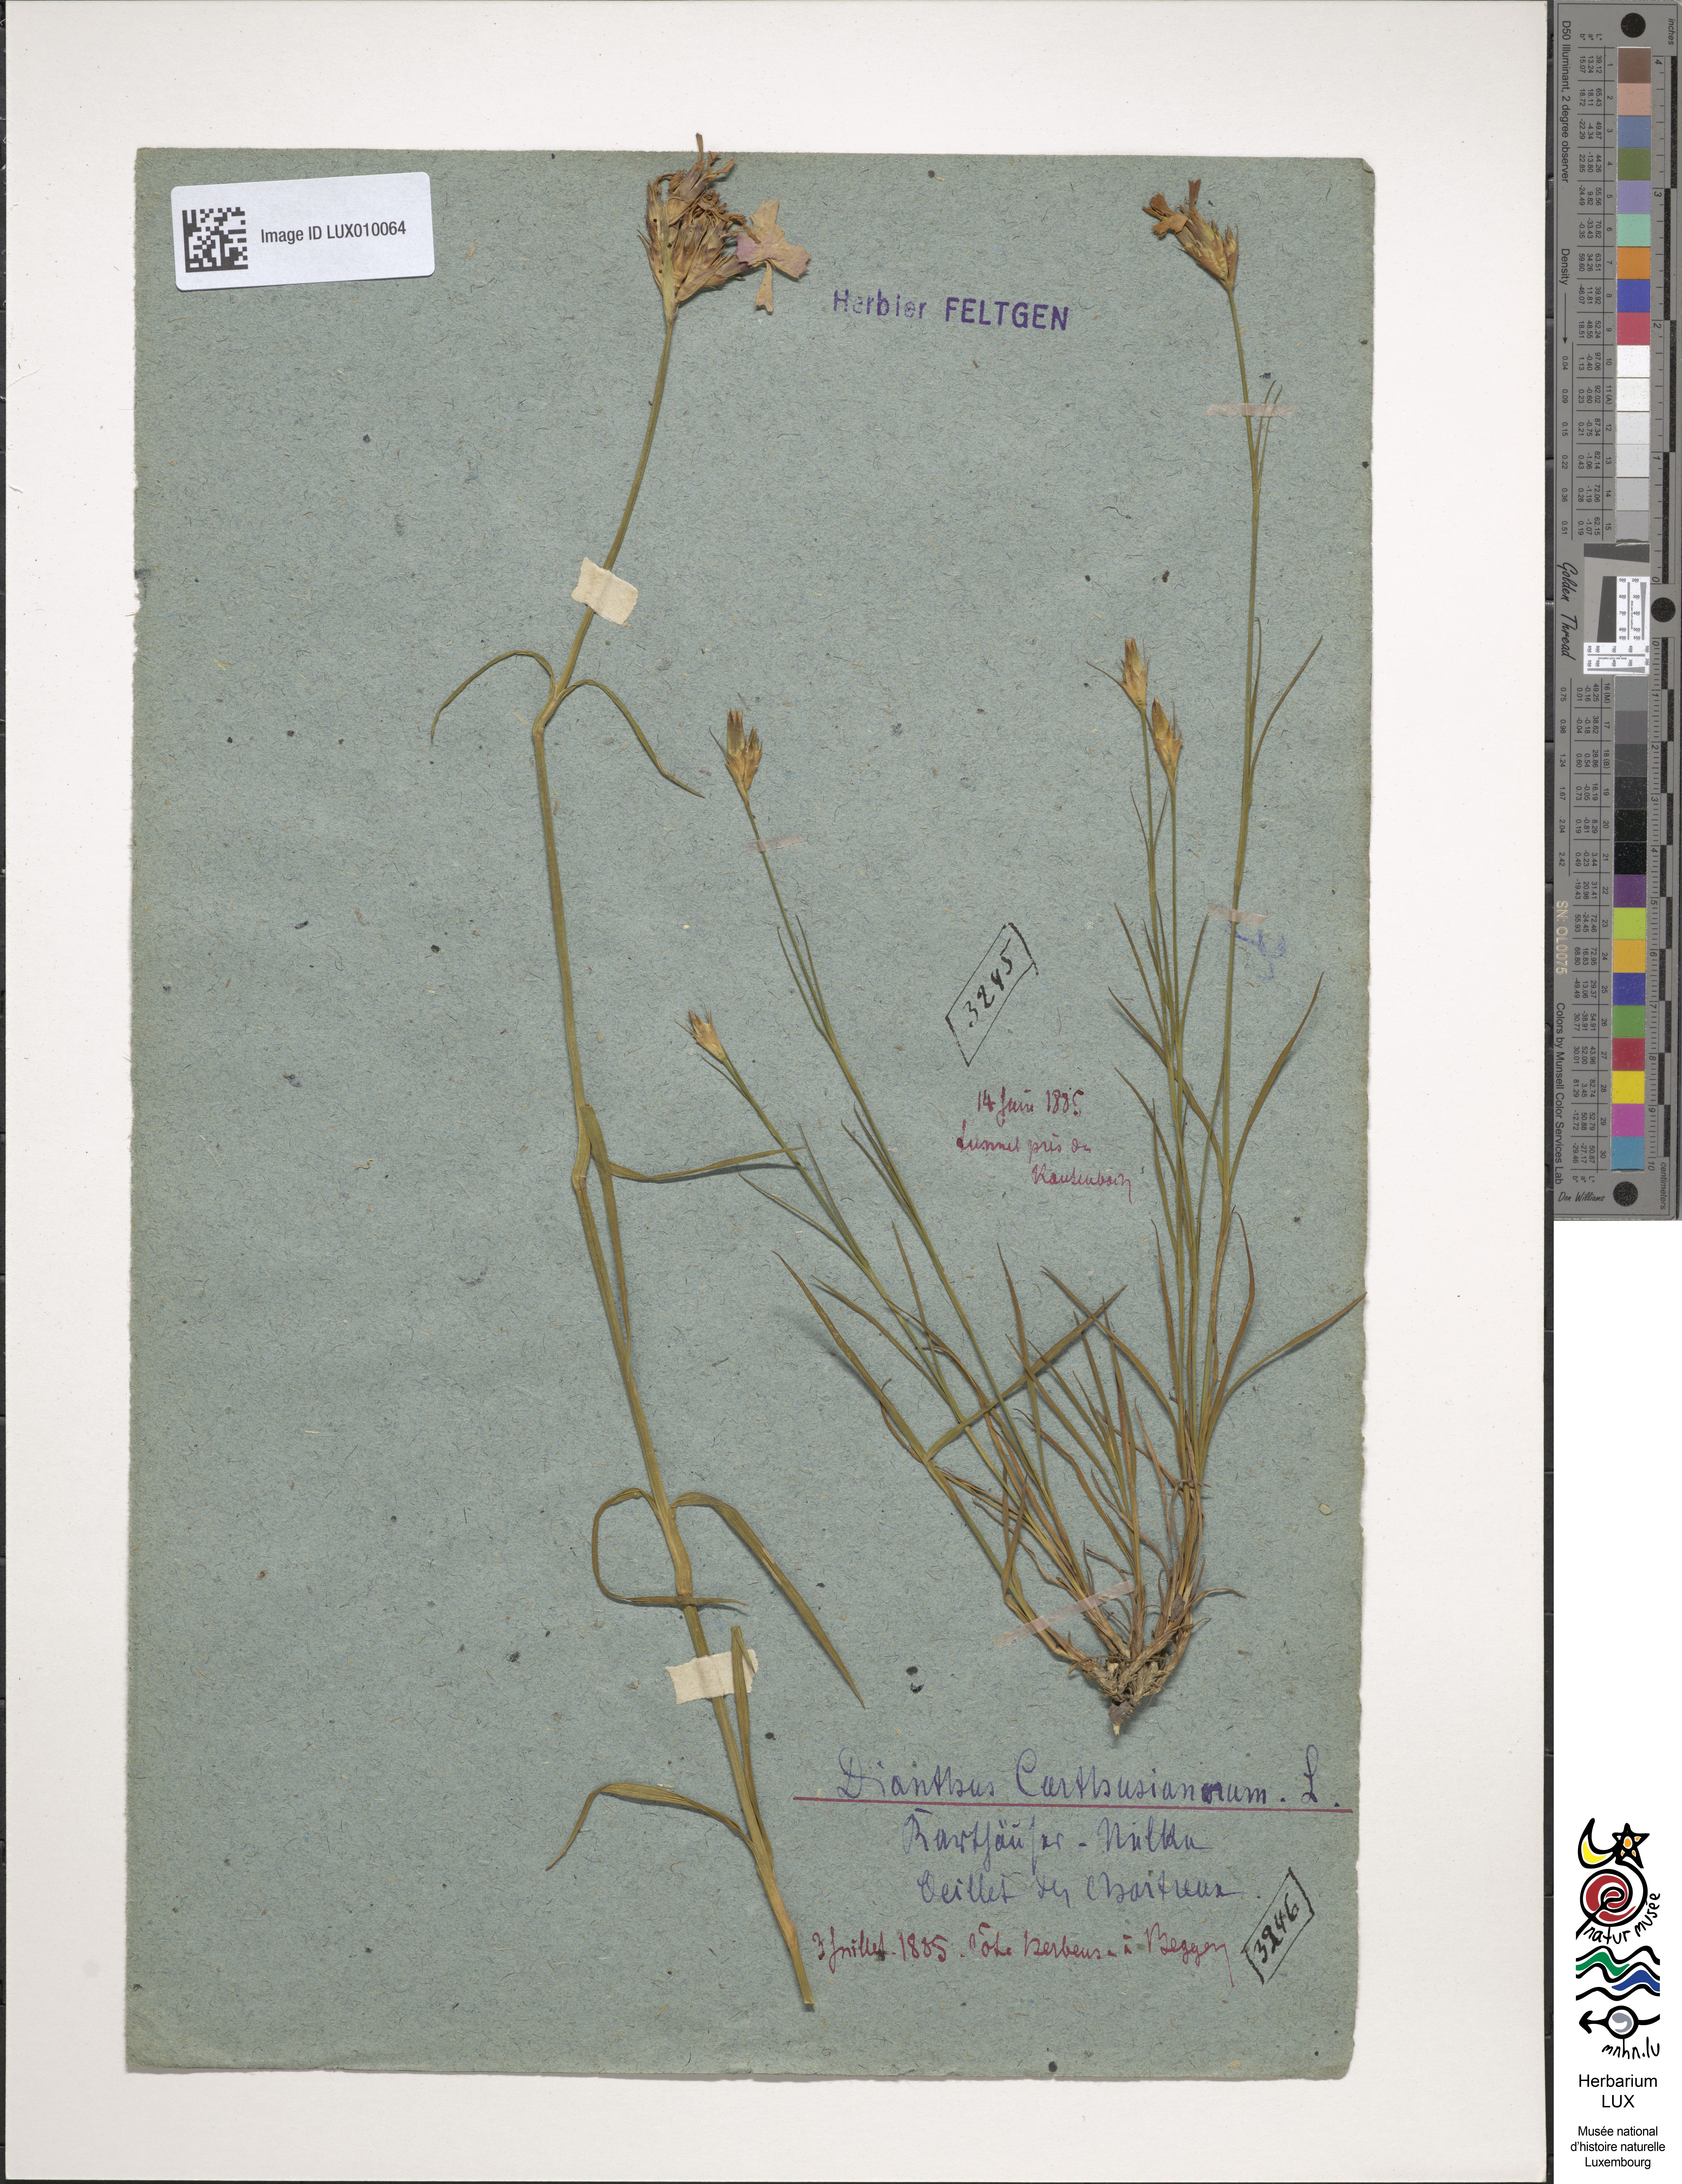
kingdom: Plantae
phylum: Tracheophyta
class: Magnoliopsida
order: Caryophyllales
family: Caryophyllaceae
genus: Dianthus
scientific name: Dianthus carthusianorum
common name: Carthusian pink
